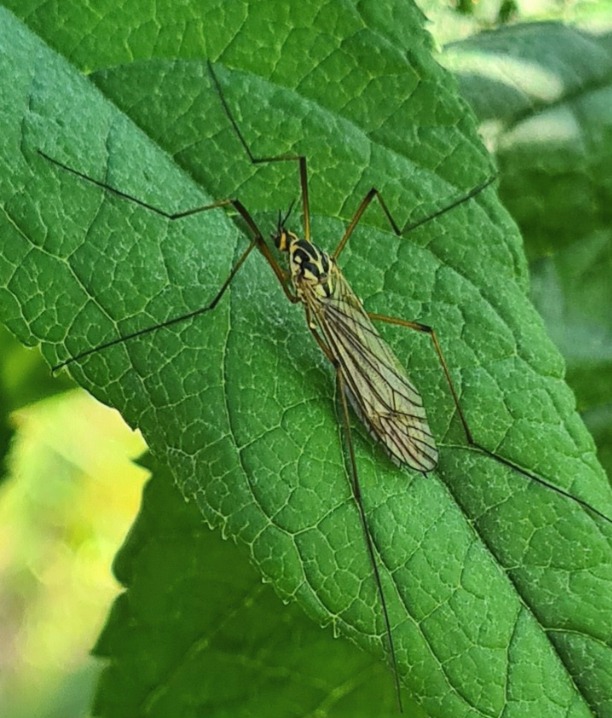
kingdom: Animalia
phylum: Arthropoda
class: Insecta
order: Diptera
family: Tipulidae
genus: Nephrotoma
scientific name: Nephrotoma appendiculata
